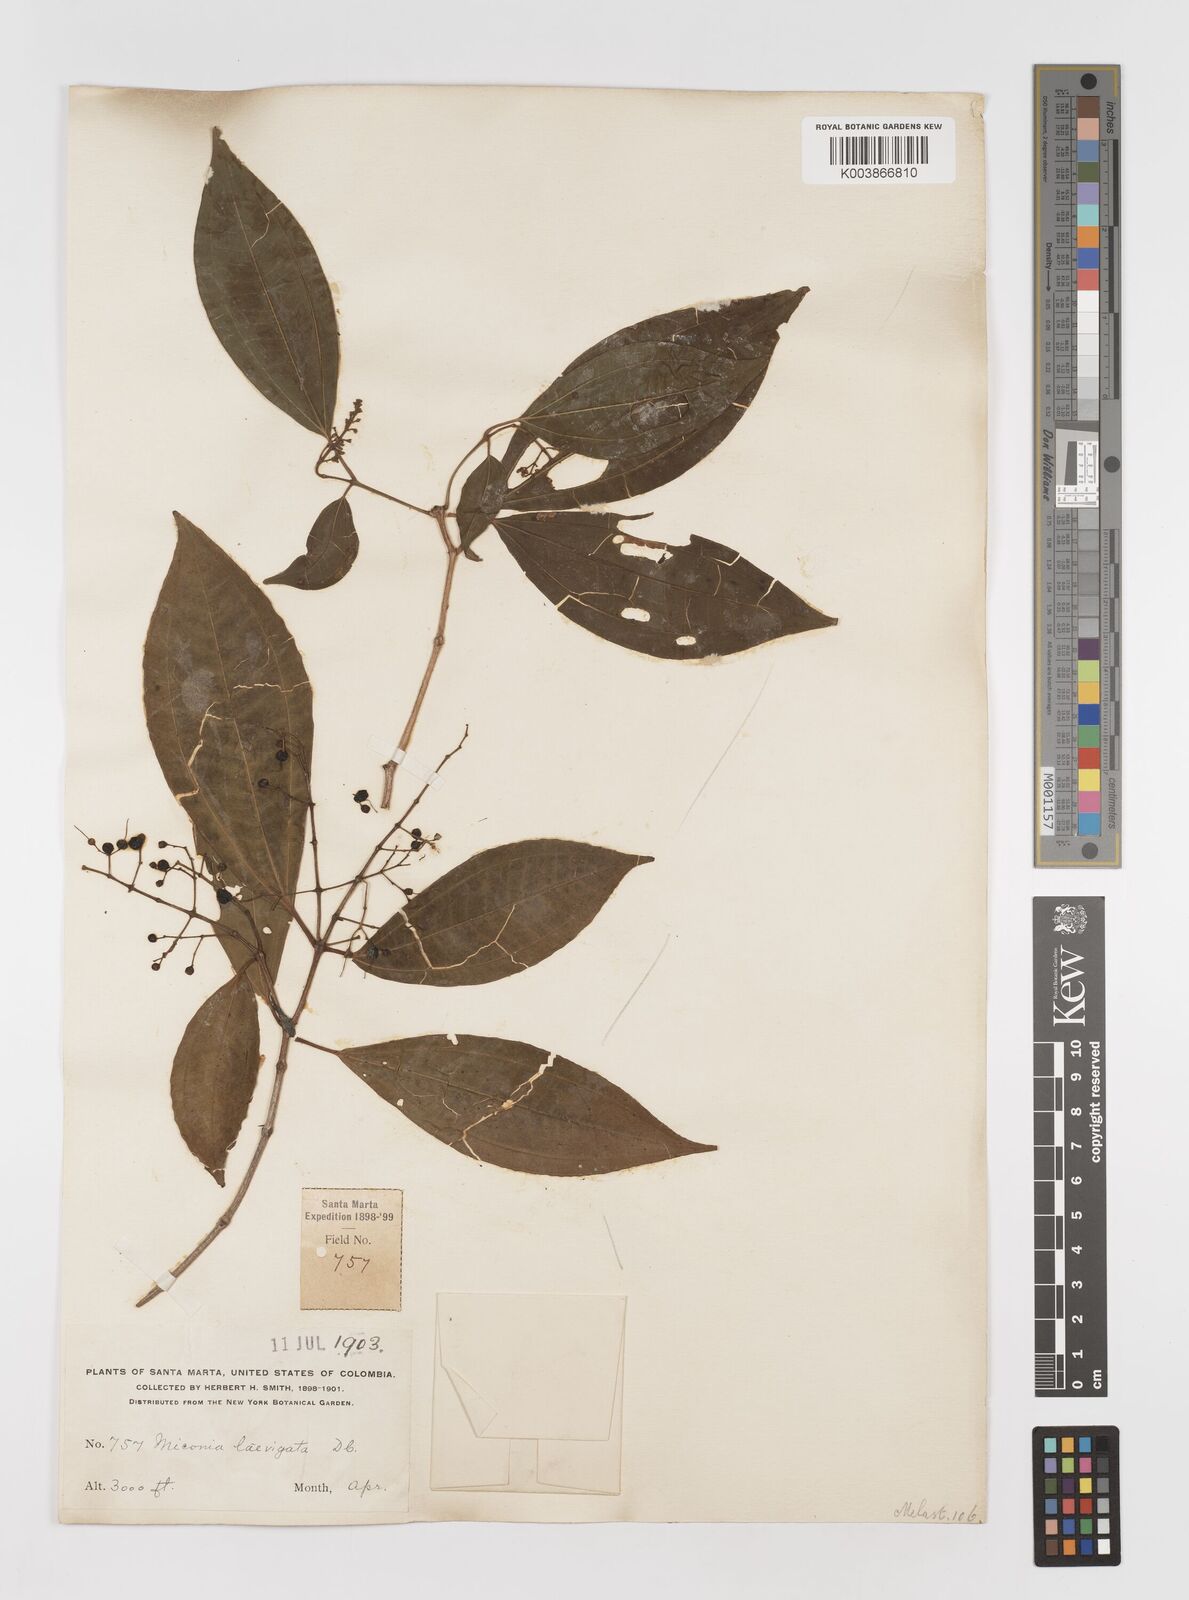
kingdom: Plantae
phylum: Tracheophyta
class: Magnoliopsida
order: Myrtales
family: Melastomataceae
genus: Miconia
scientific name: Miconia laevigata
